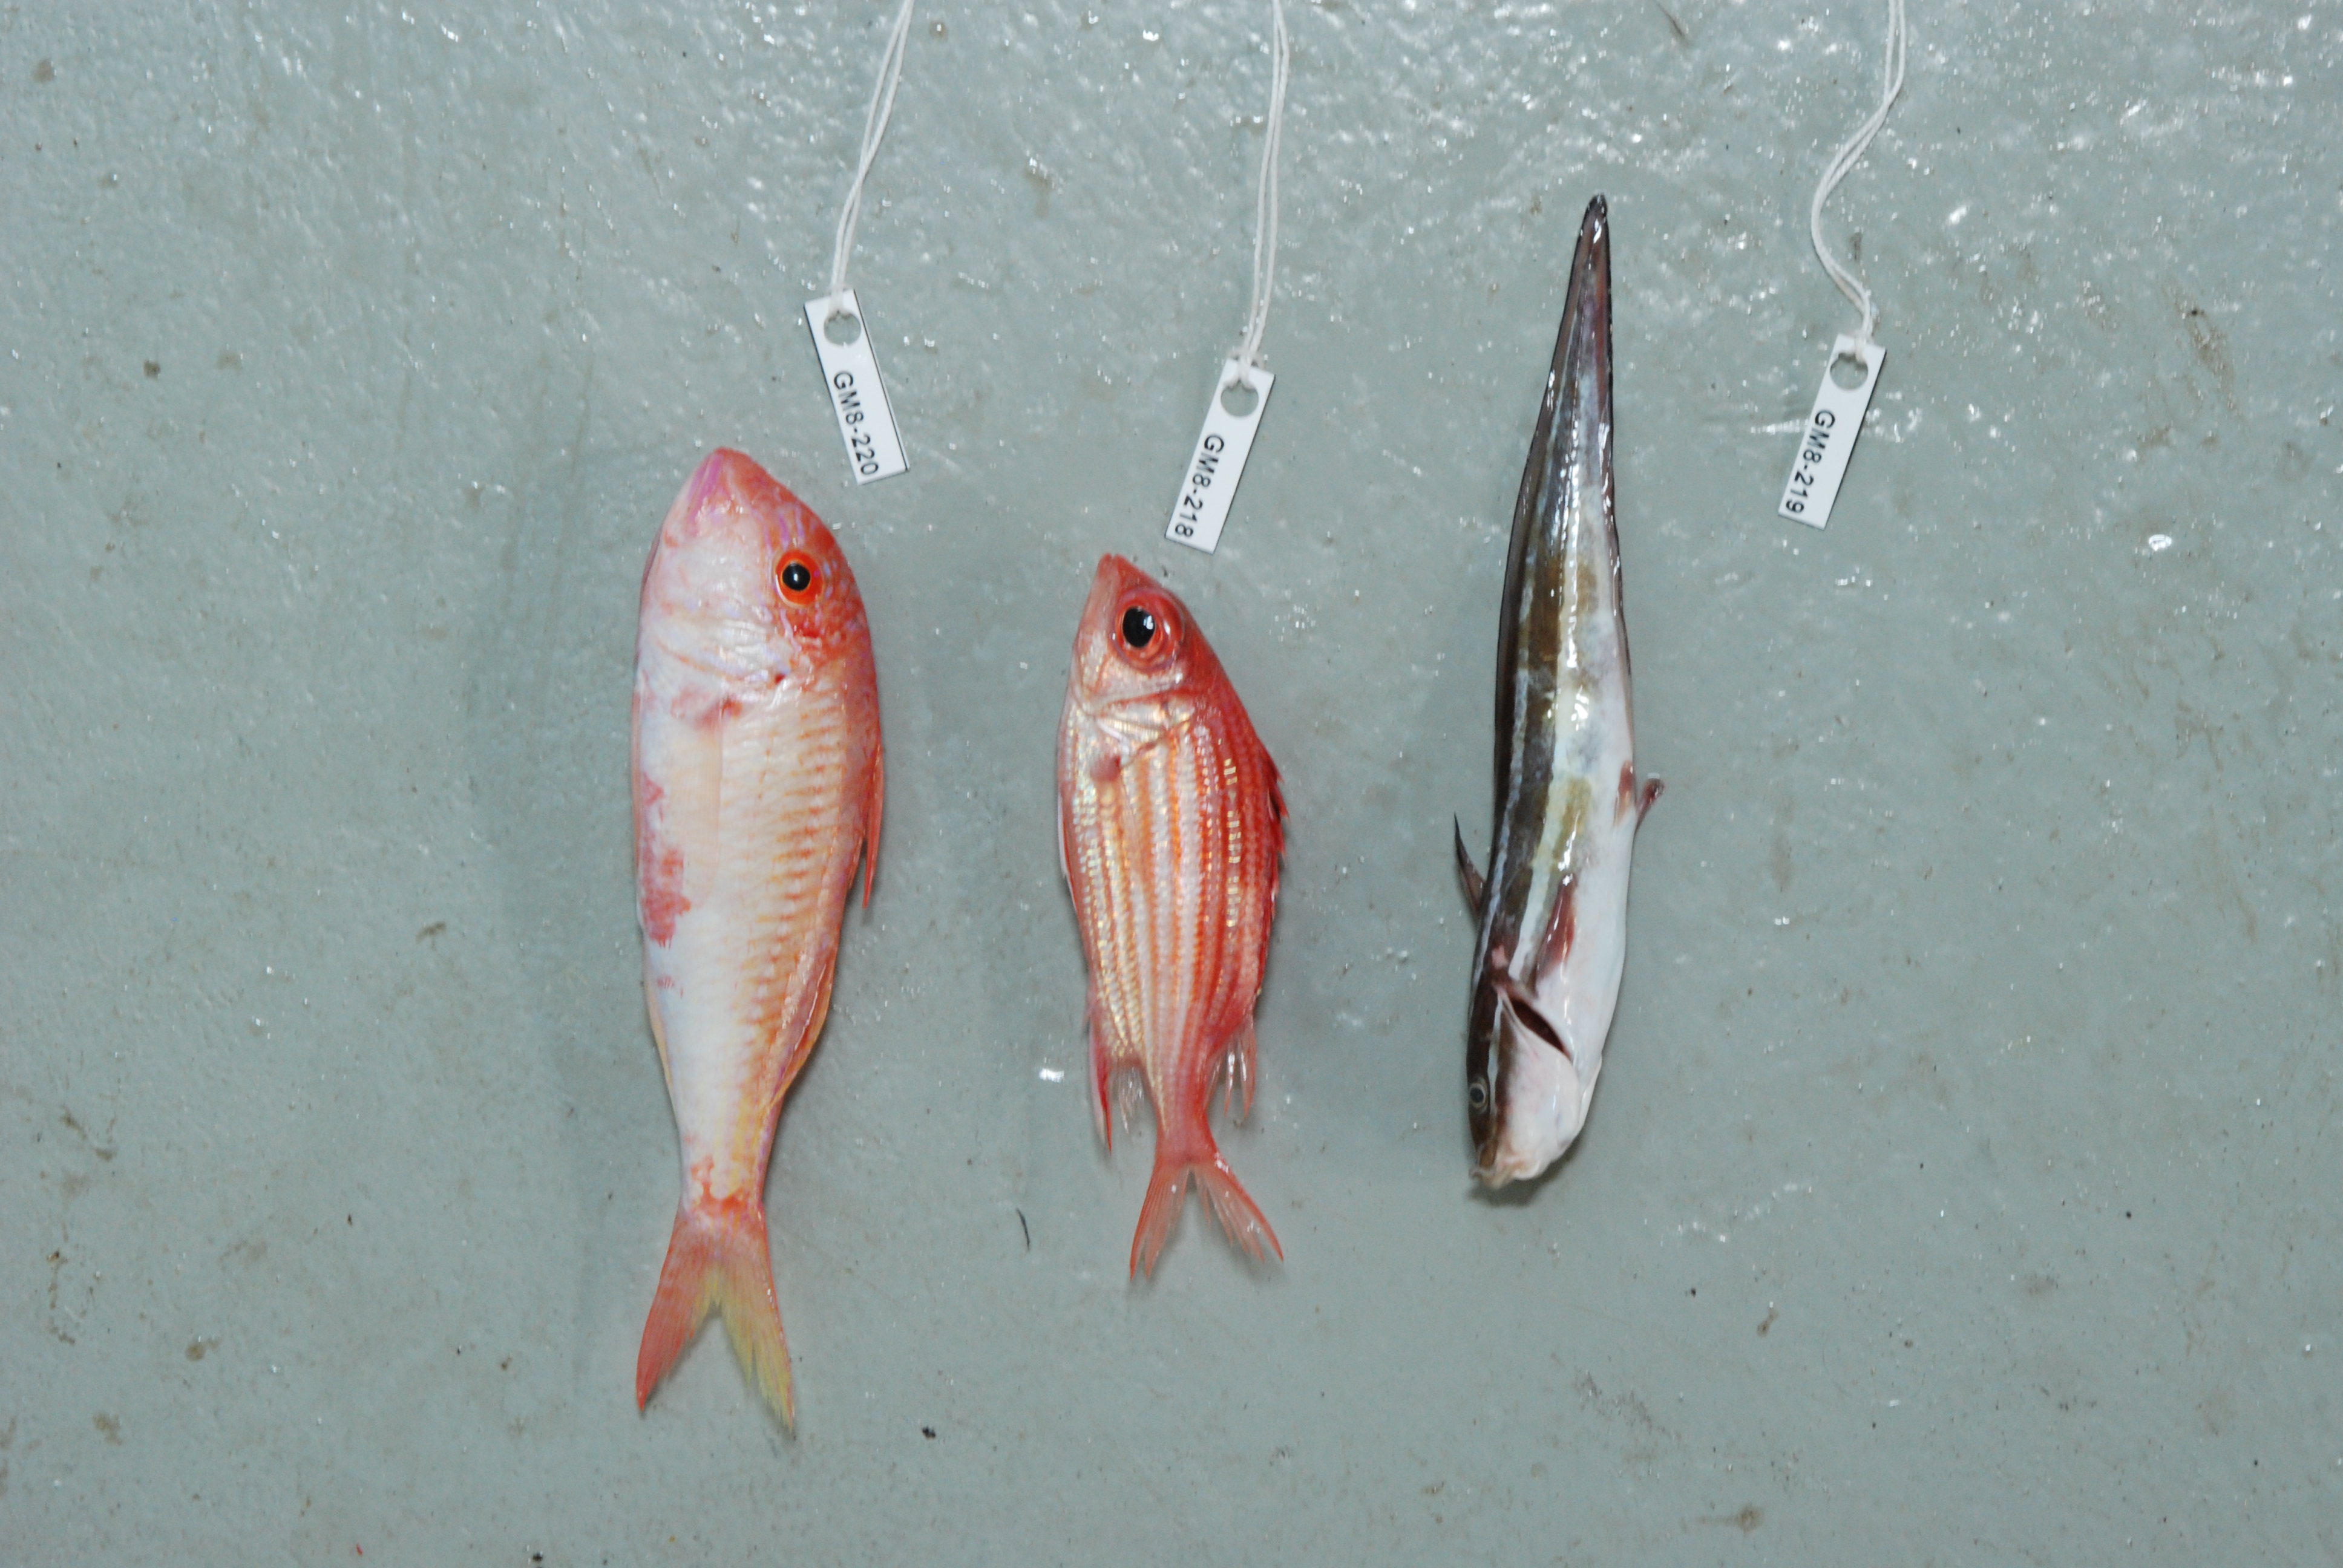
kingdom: Animalia
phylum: Chordata
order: Perciformes
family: Mullidae
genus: Parupeneus
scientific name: Parupeneus procerigena
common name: Deep-cheek goatfish
